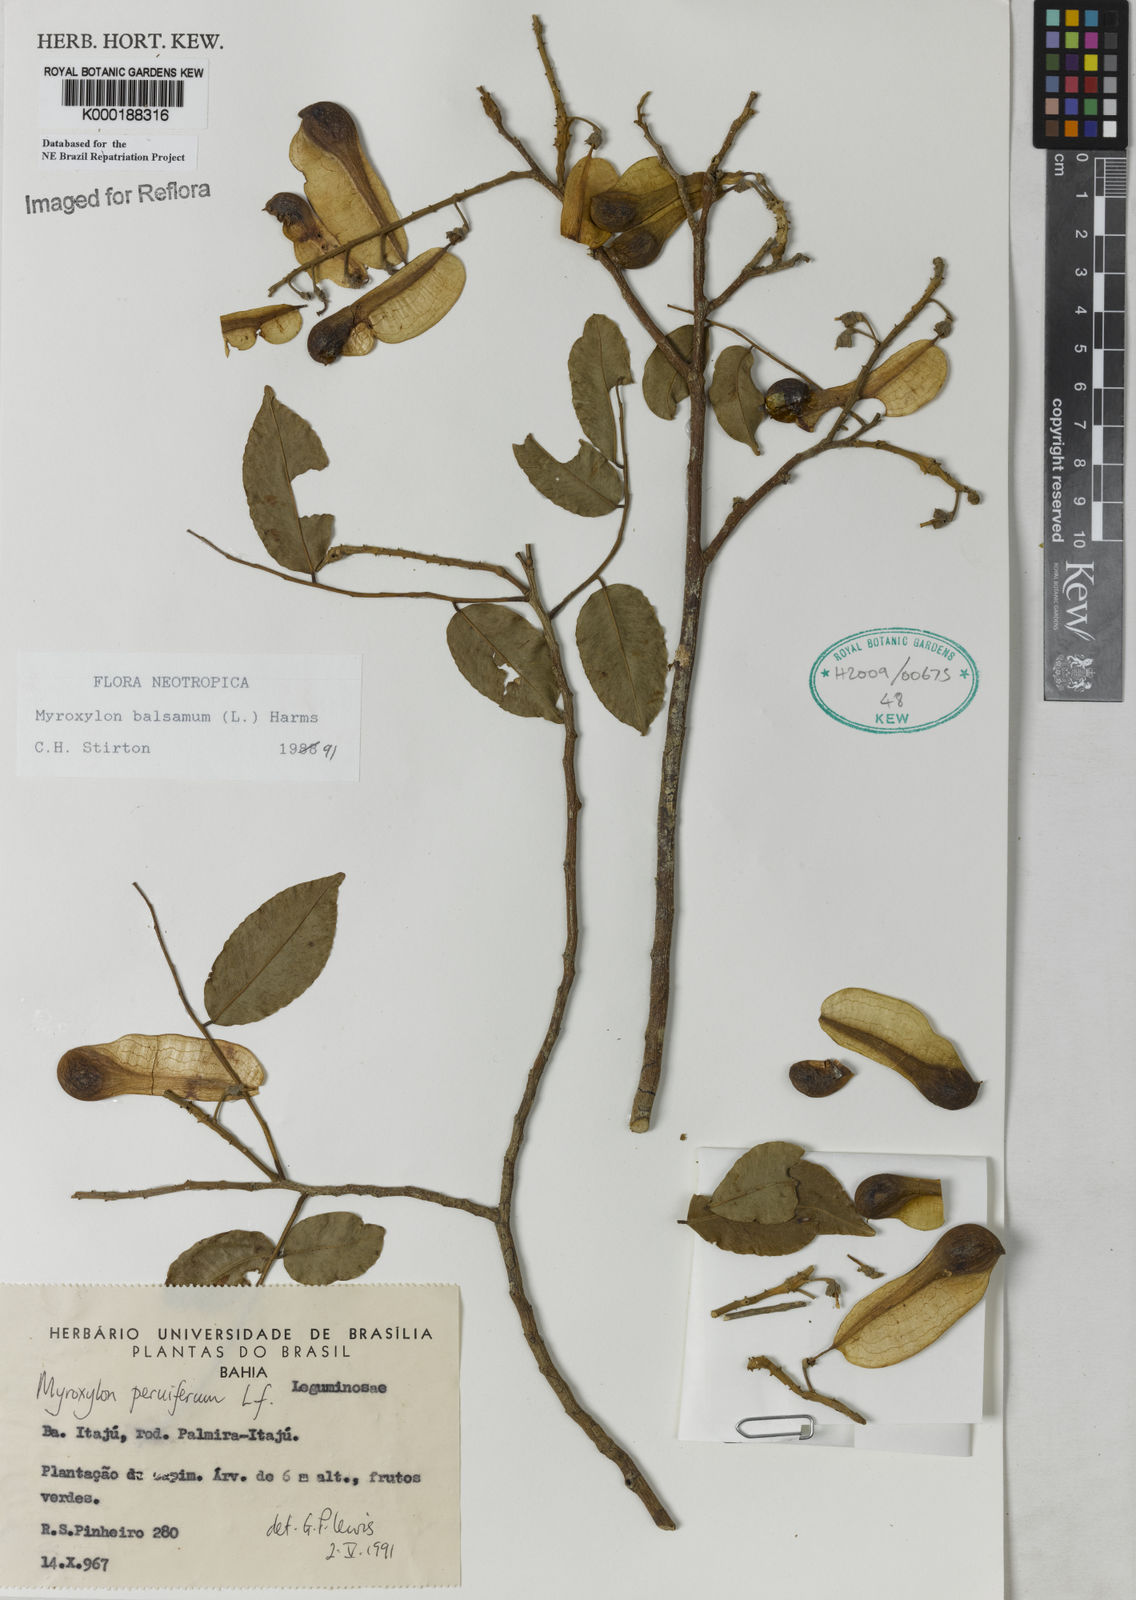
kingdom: Plantae
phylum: Tracheophyta
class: Magnoliopsida
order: Fabales
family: Fabaceae
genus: Myroxylon
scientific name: Myroxylon balsamum
